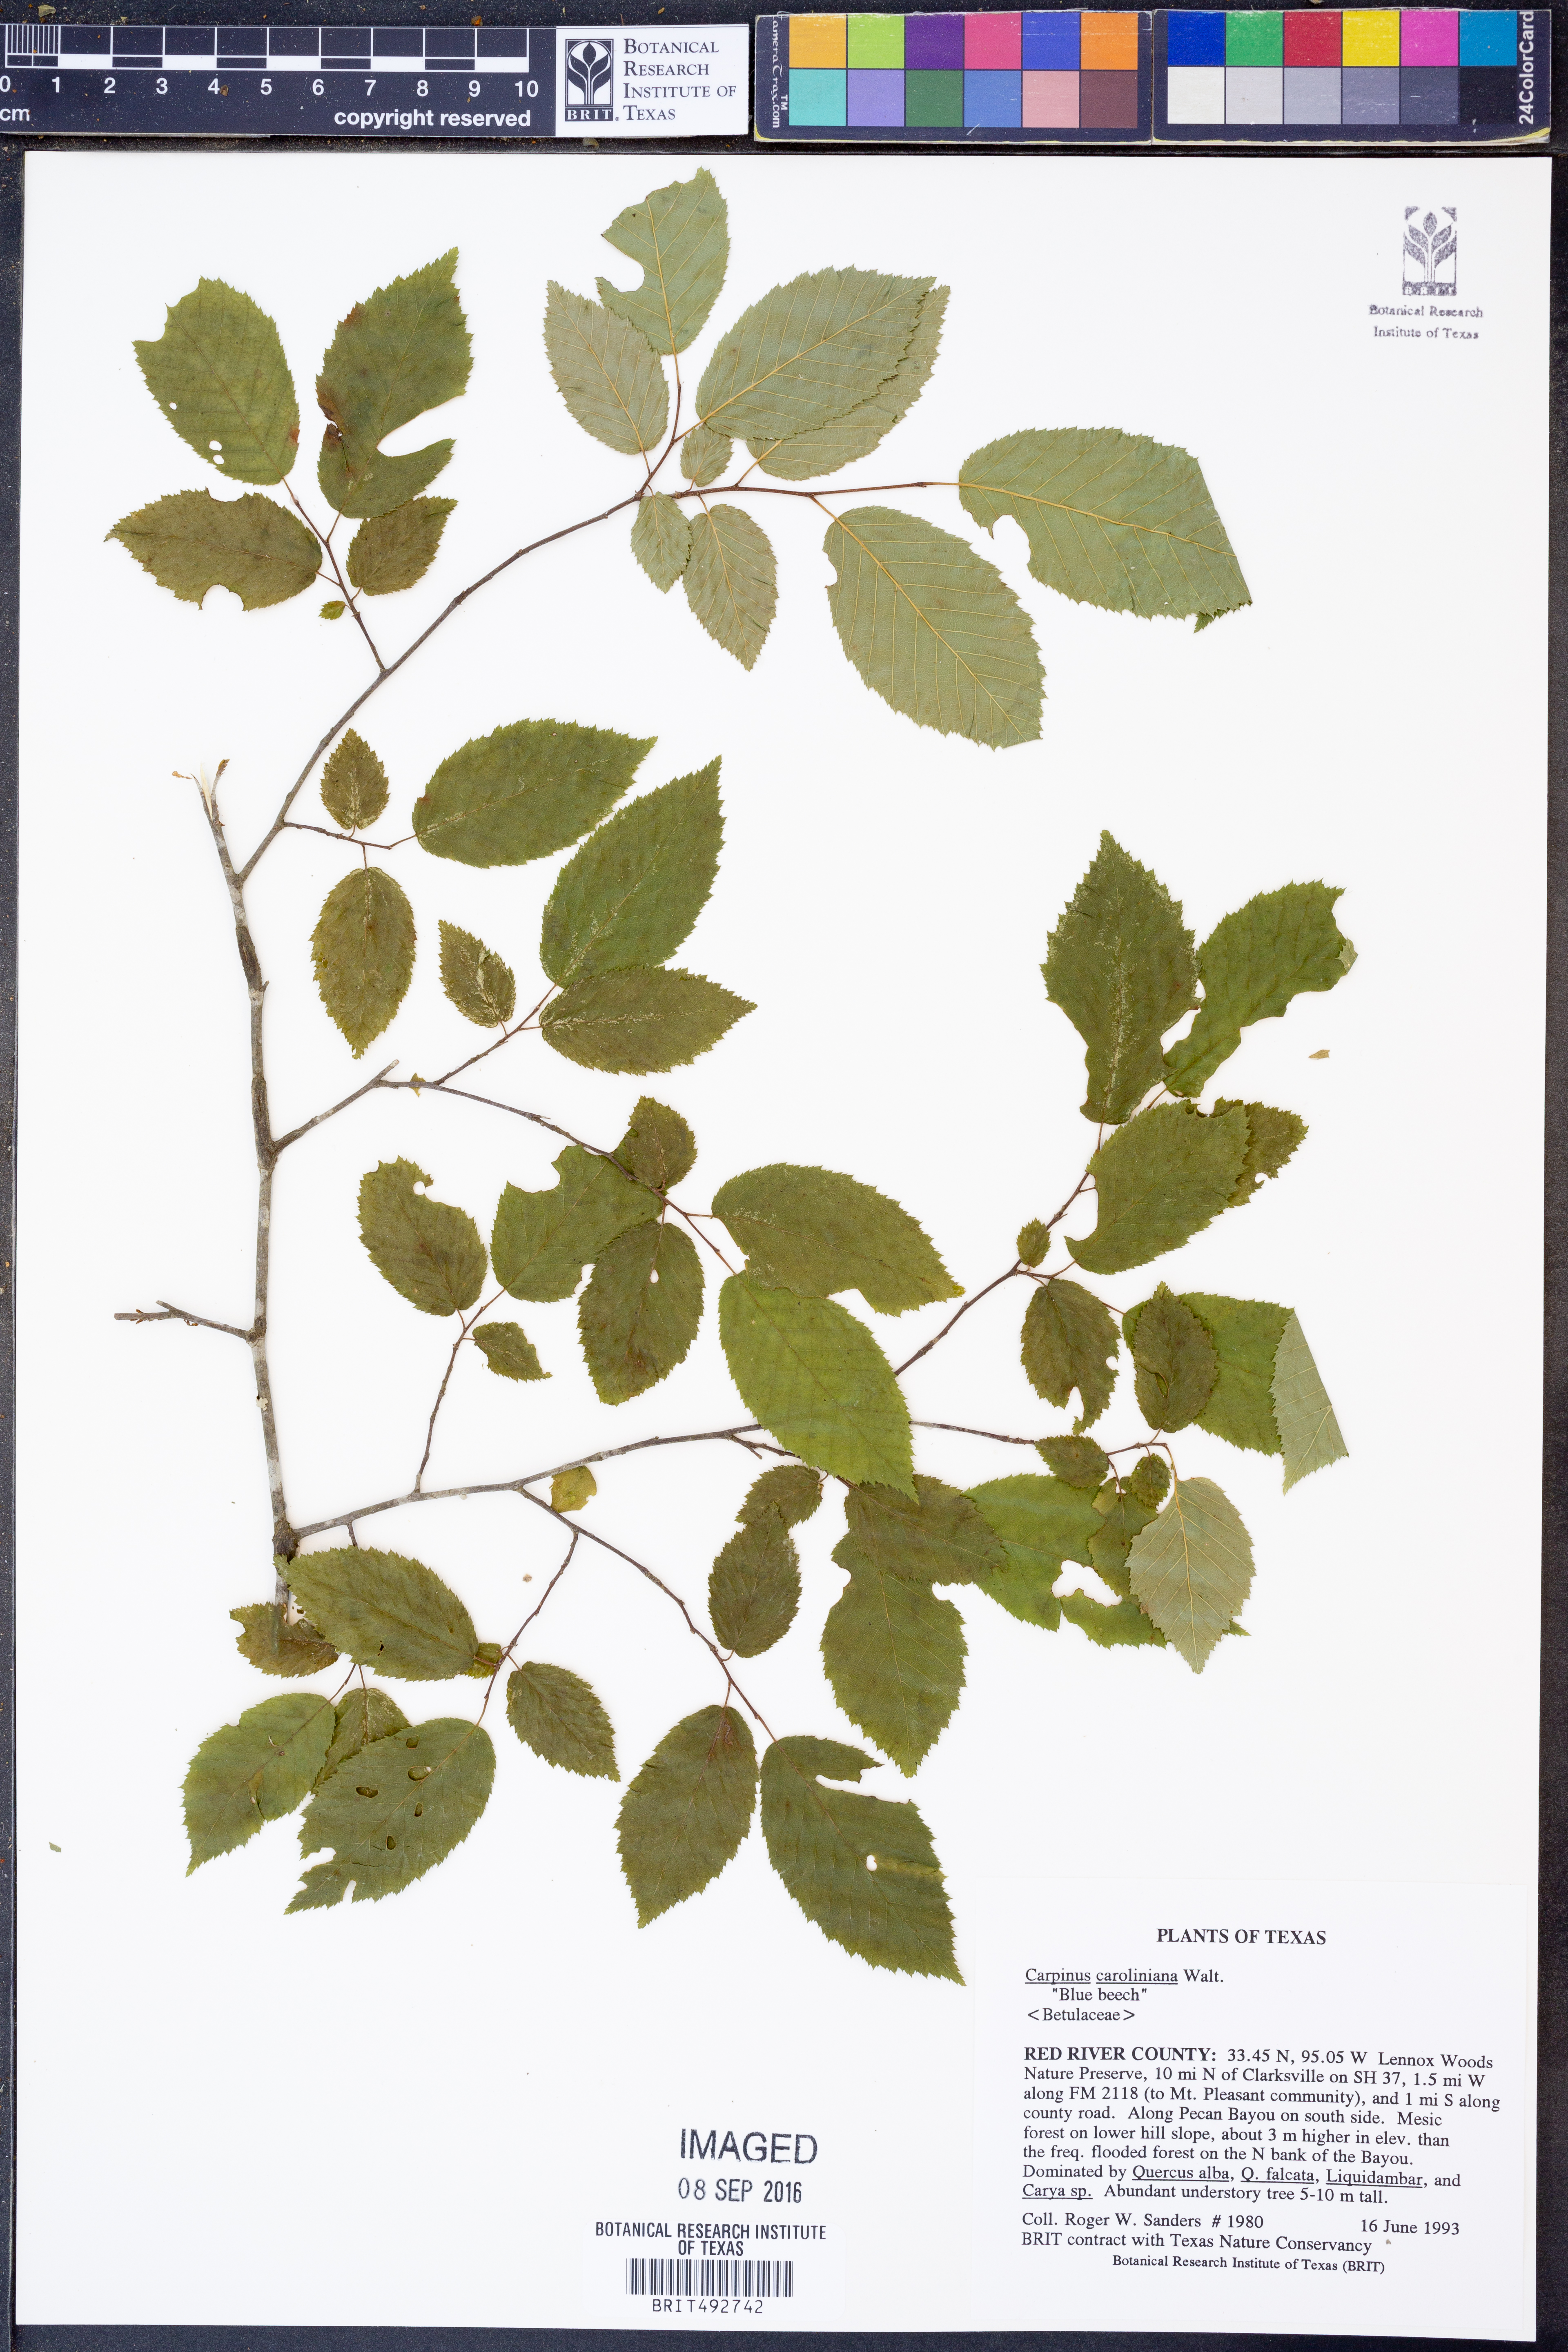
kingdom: Plantae
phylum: Tracheophyta
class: Magnoliopsida
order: Fagales
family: Betulaceae
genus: Carpinus
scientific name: Carpinus caroliniana
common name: American hornbeam
